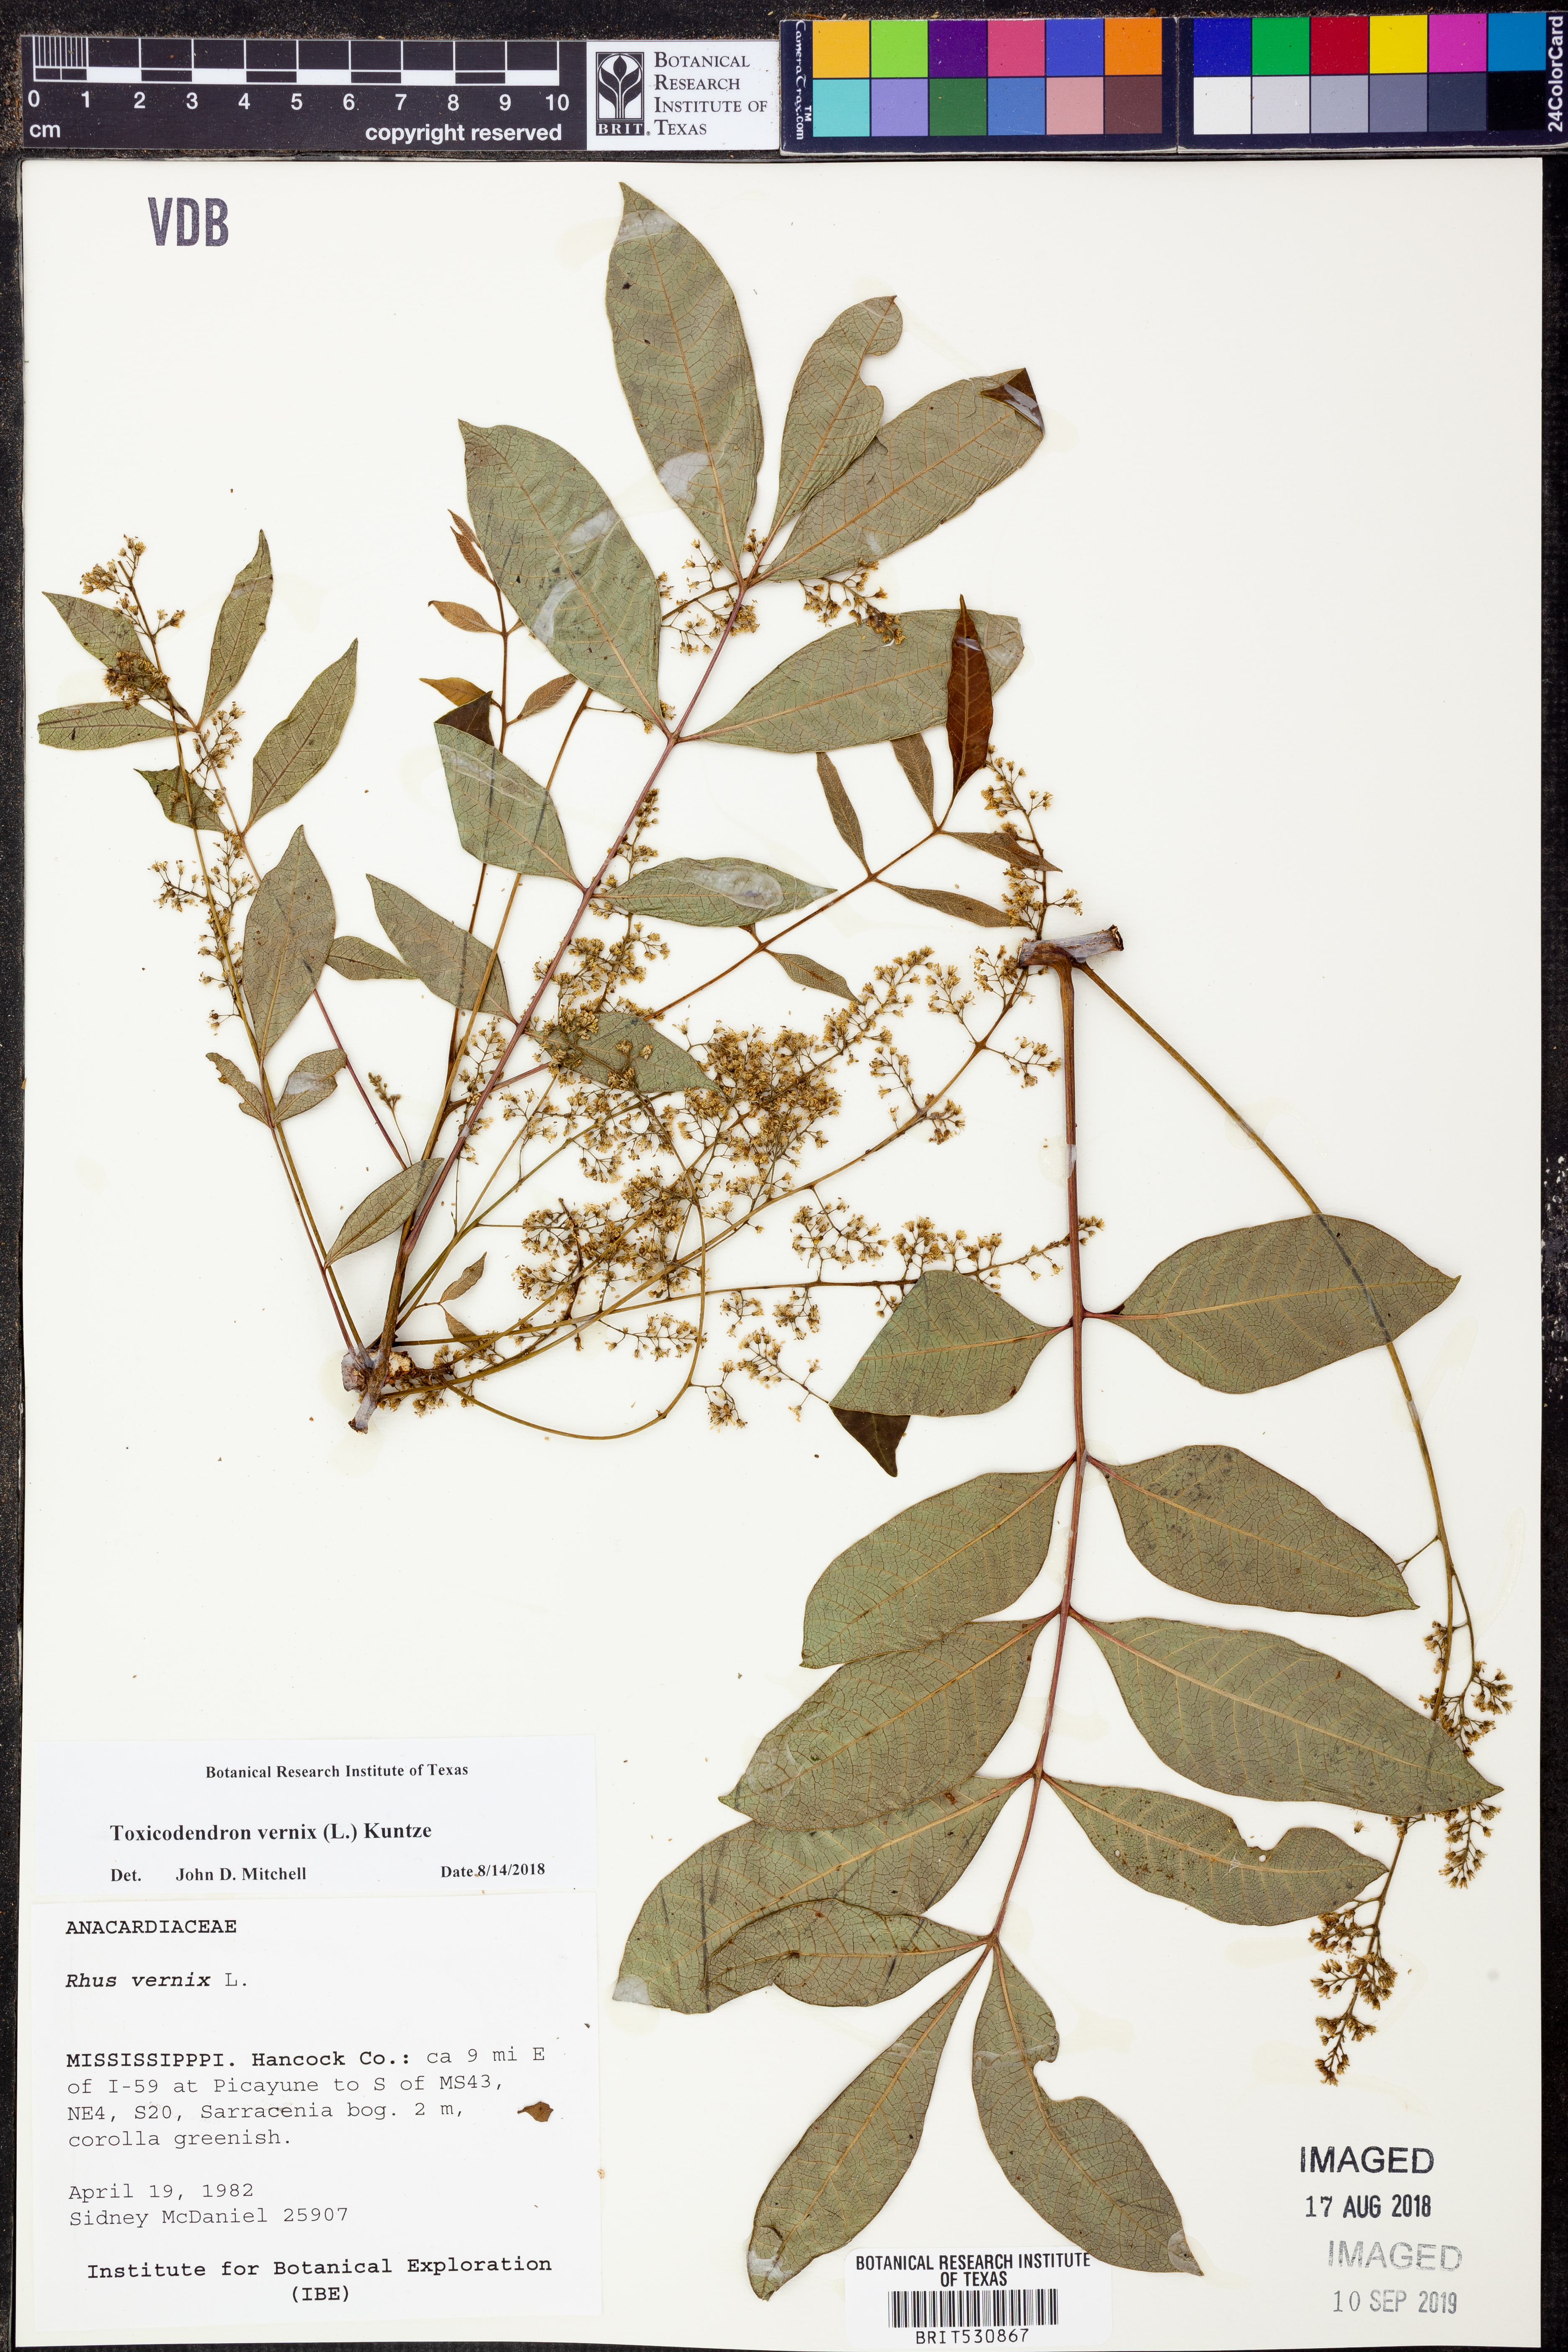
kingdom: Plantae
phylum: Tracheophyta
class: Magnoliopsida
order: Sapindales
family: Anacardiaceae
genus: Toxicodendron
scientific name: Toxicodendron vernix
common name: Poison sumac
